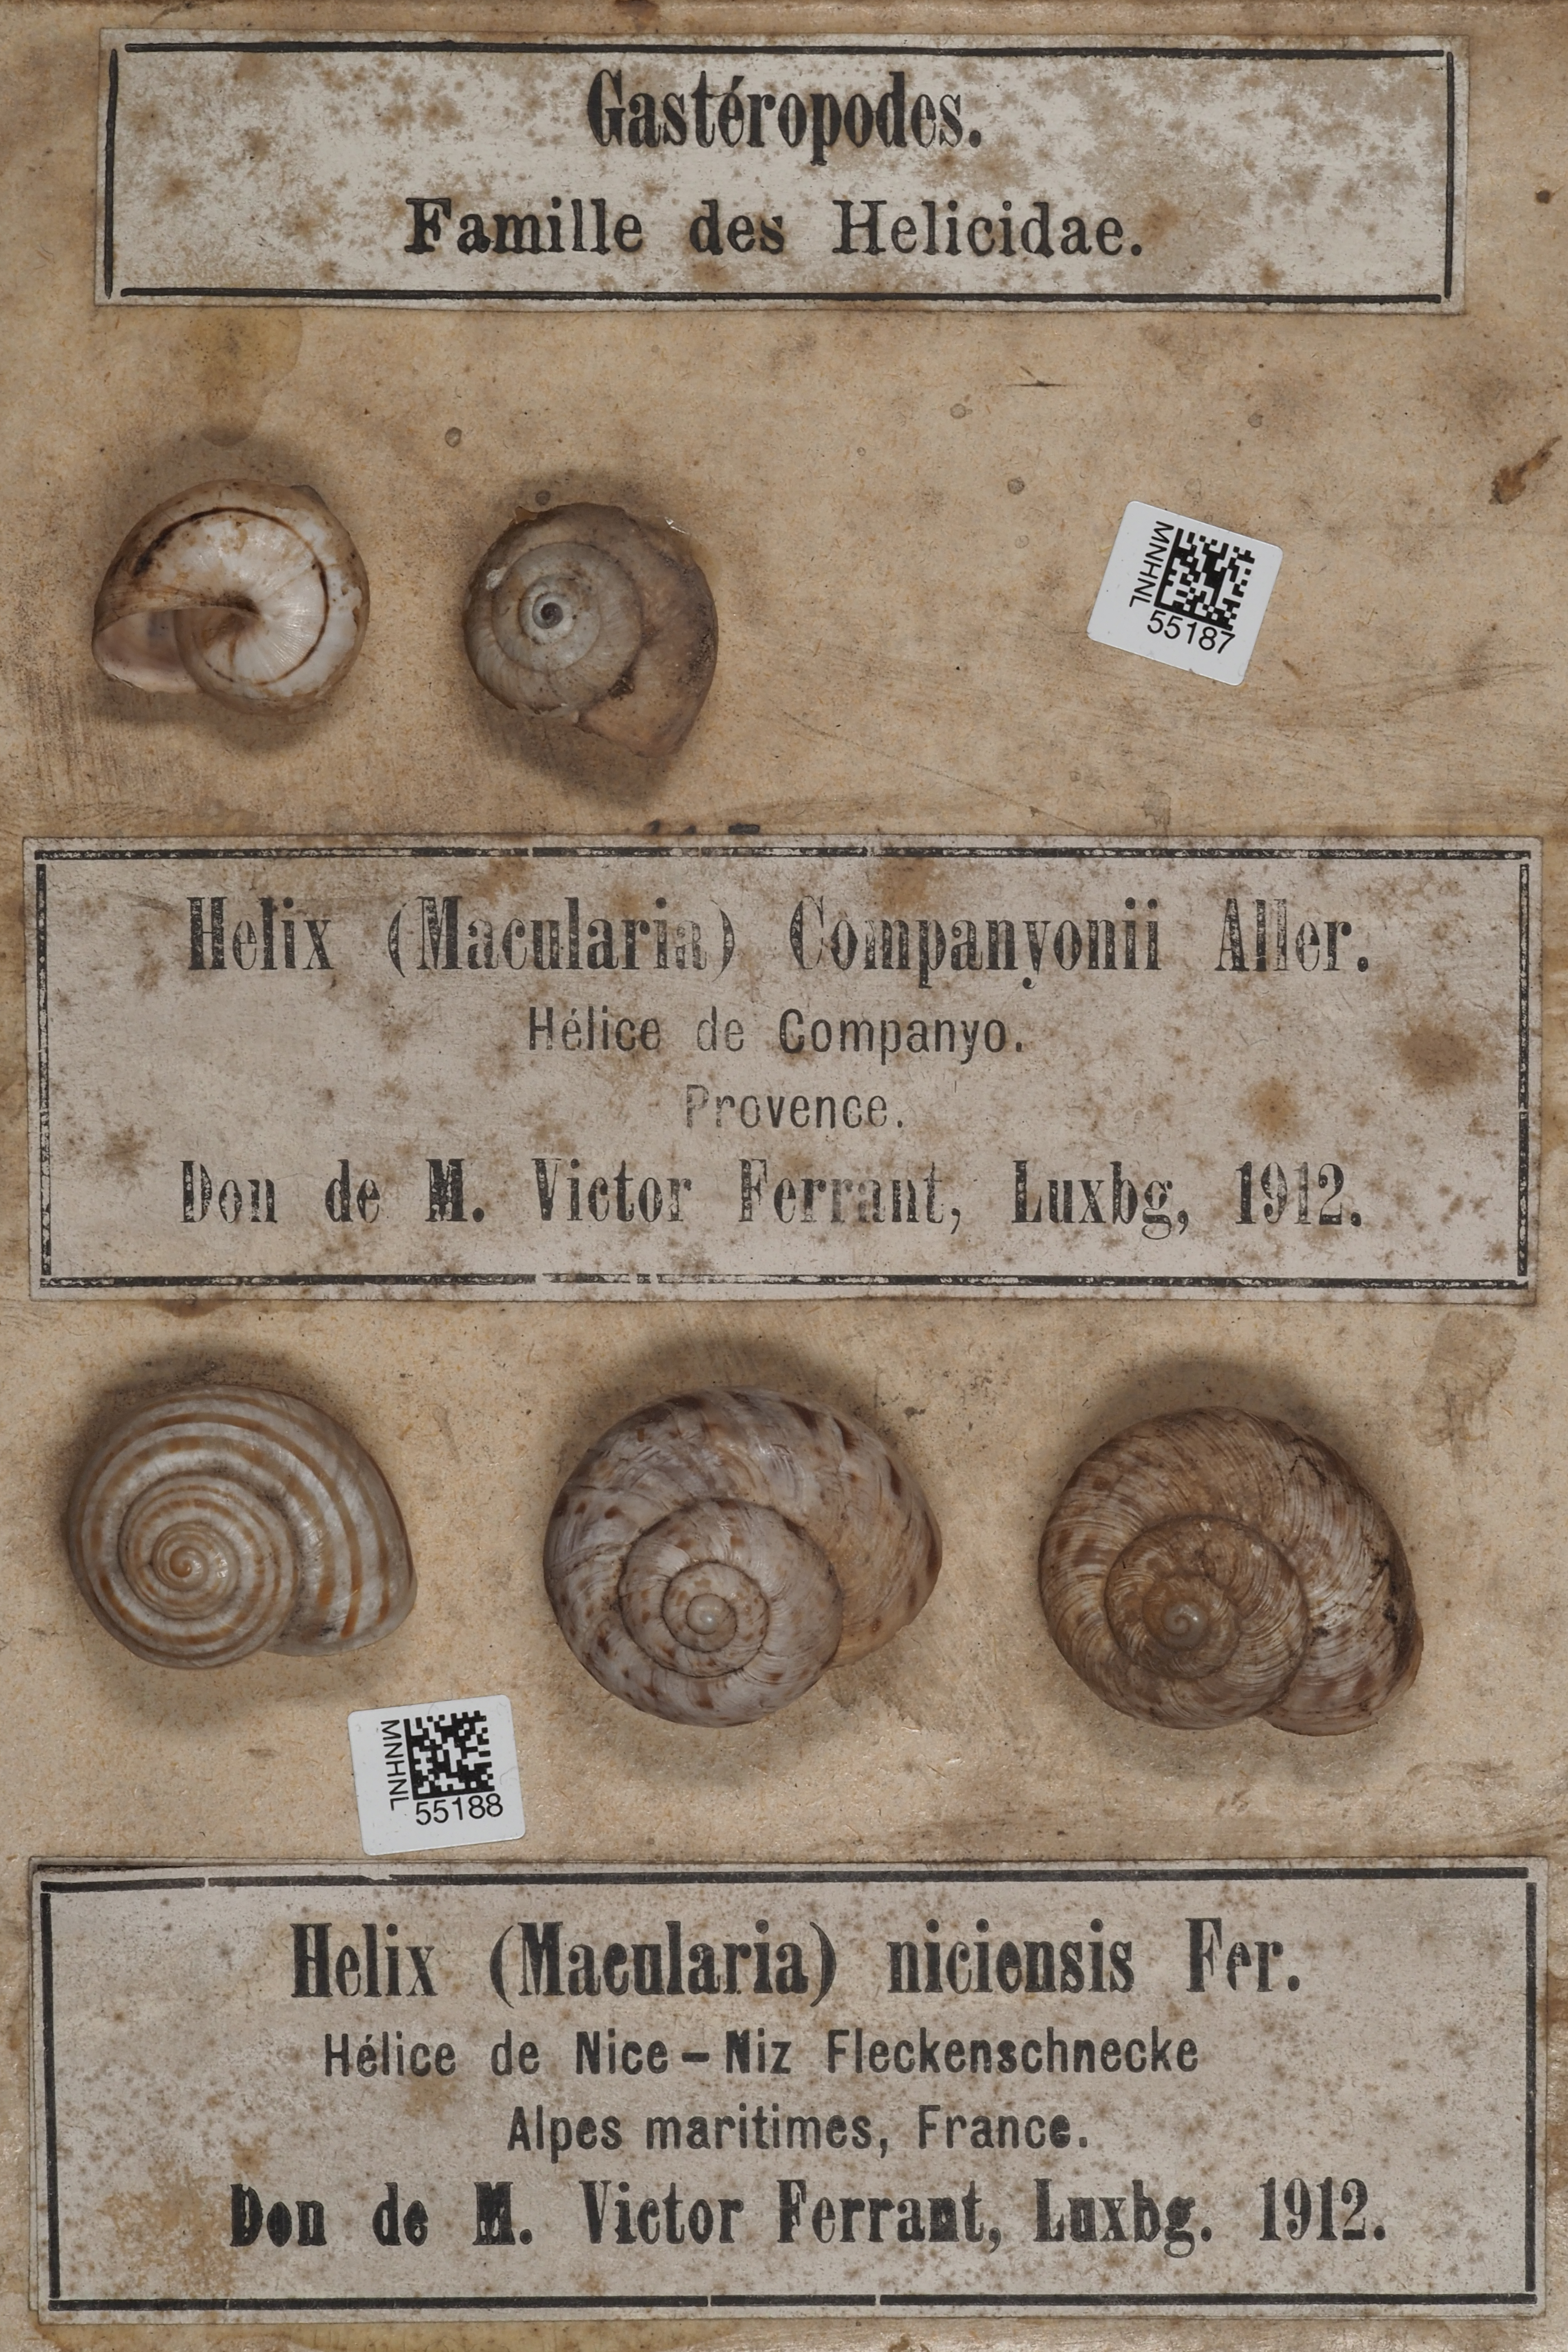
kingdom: Animalia
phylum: Mollusca
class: Gastropoda
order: Stylommatophora
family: Helicidae
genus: Macularia
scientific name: Macularia
